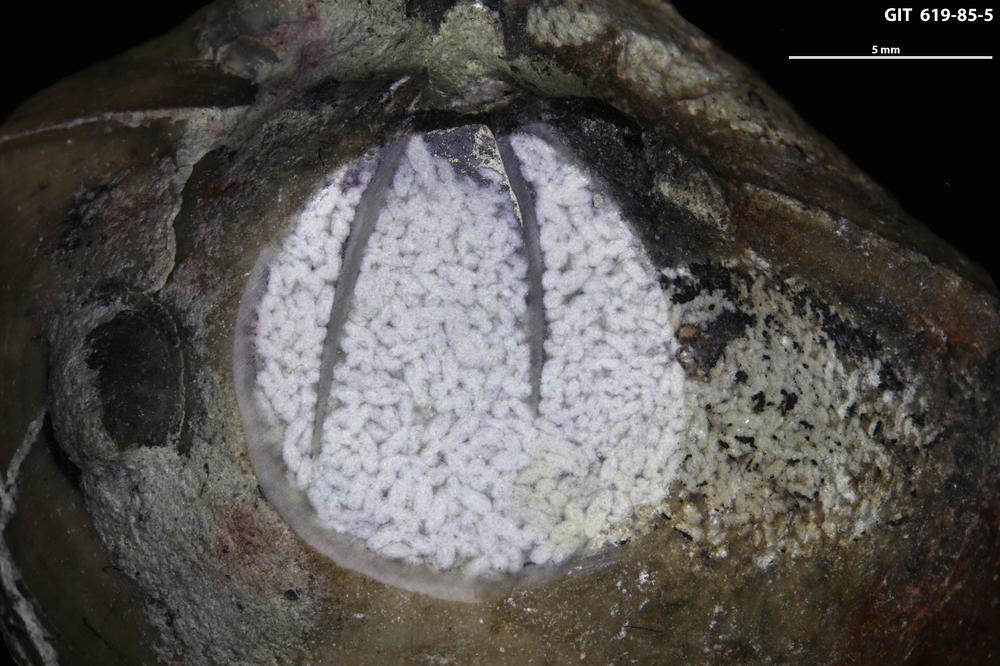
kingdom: Animalia
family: Coprulidae
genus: Coprulus
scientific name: Coprulus
